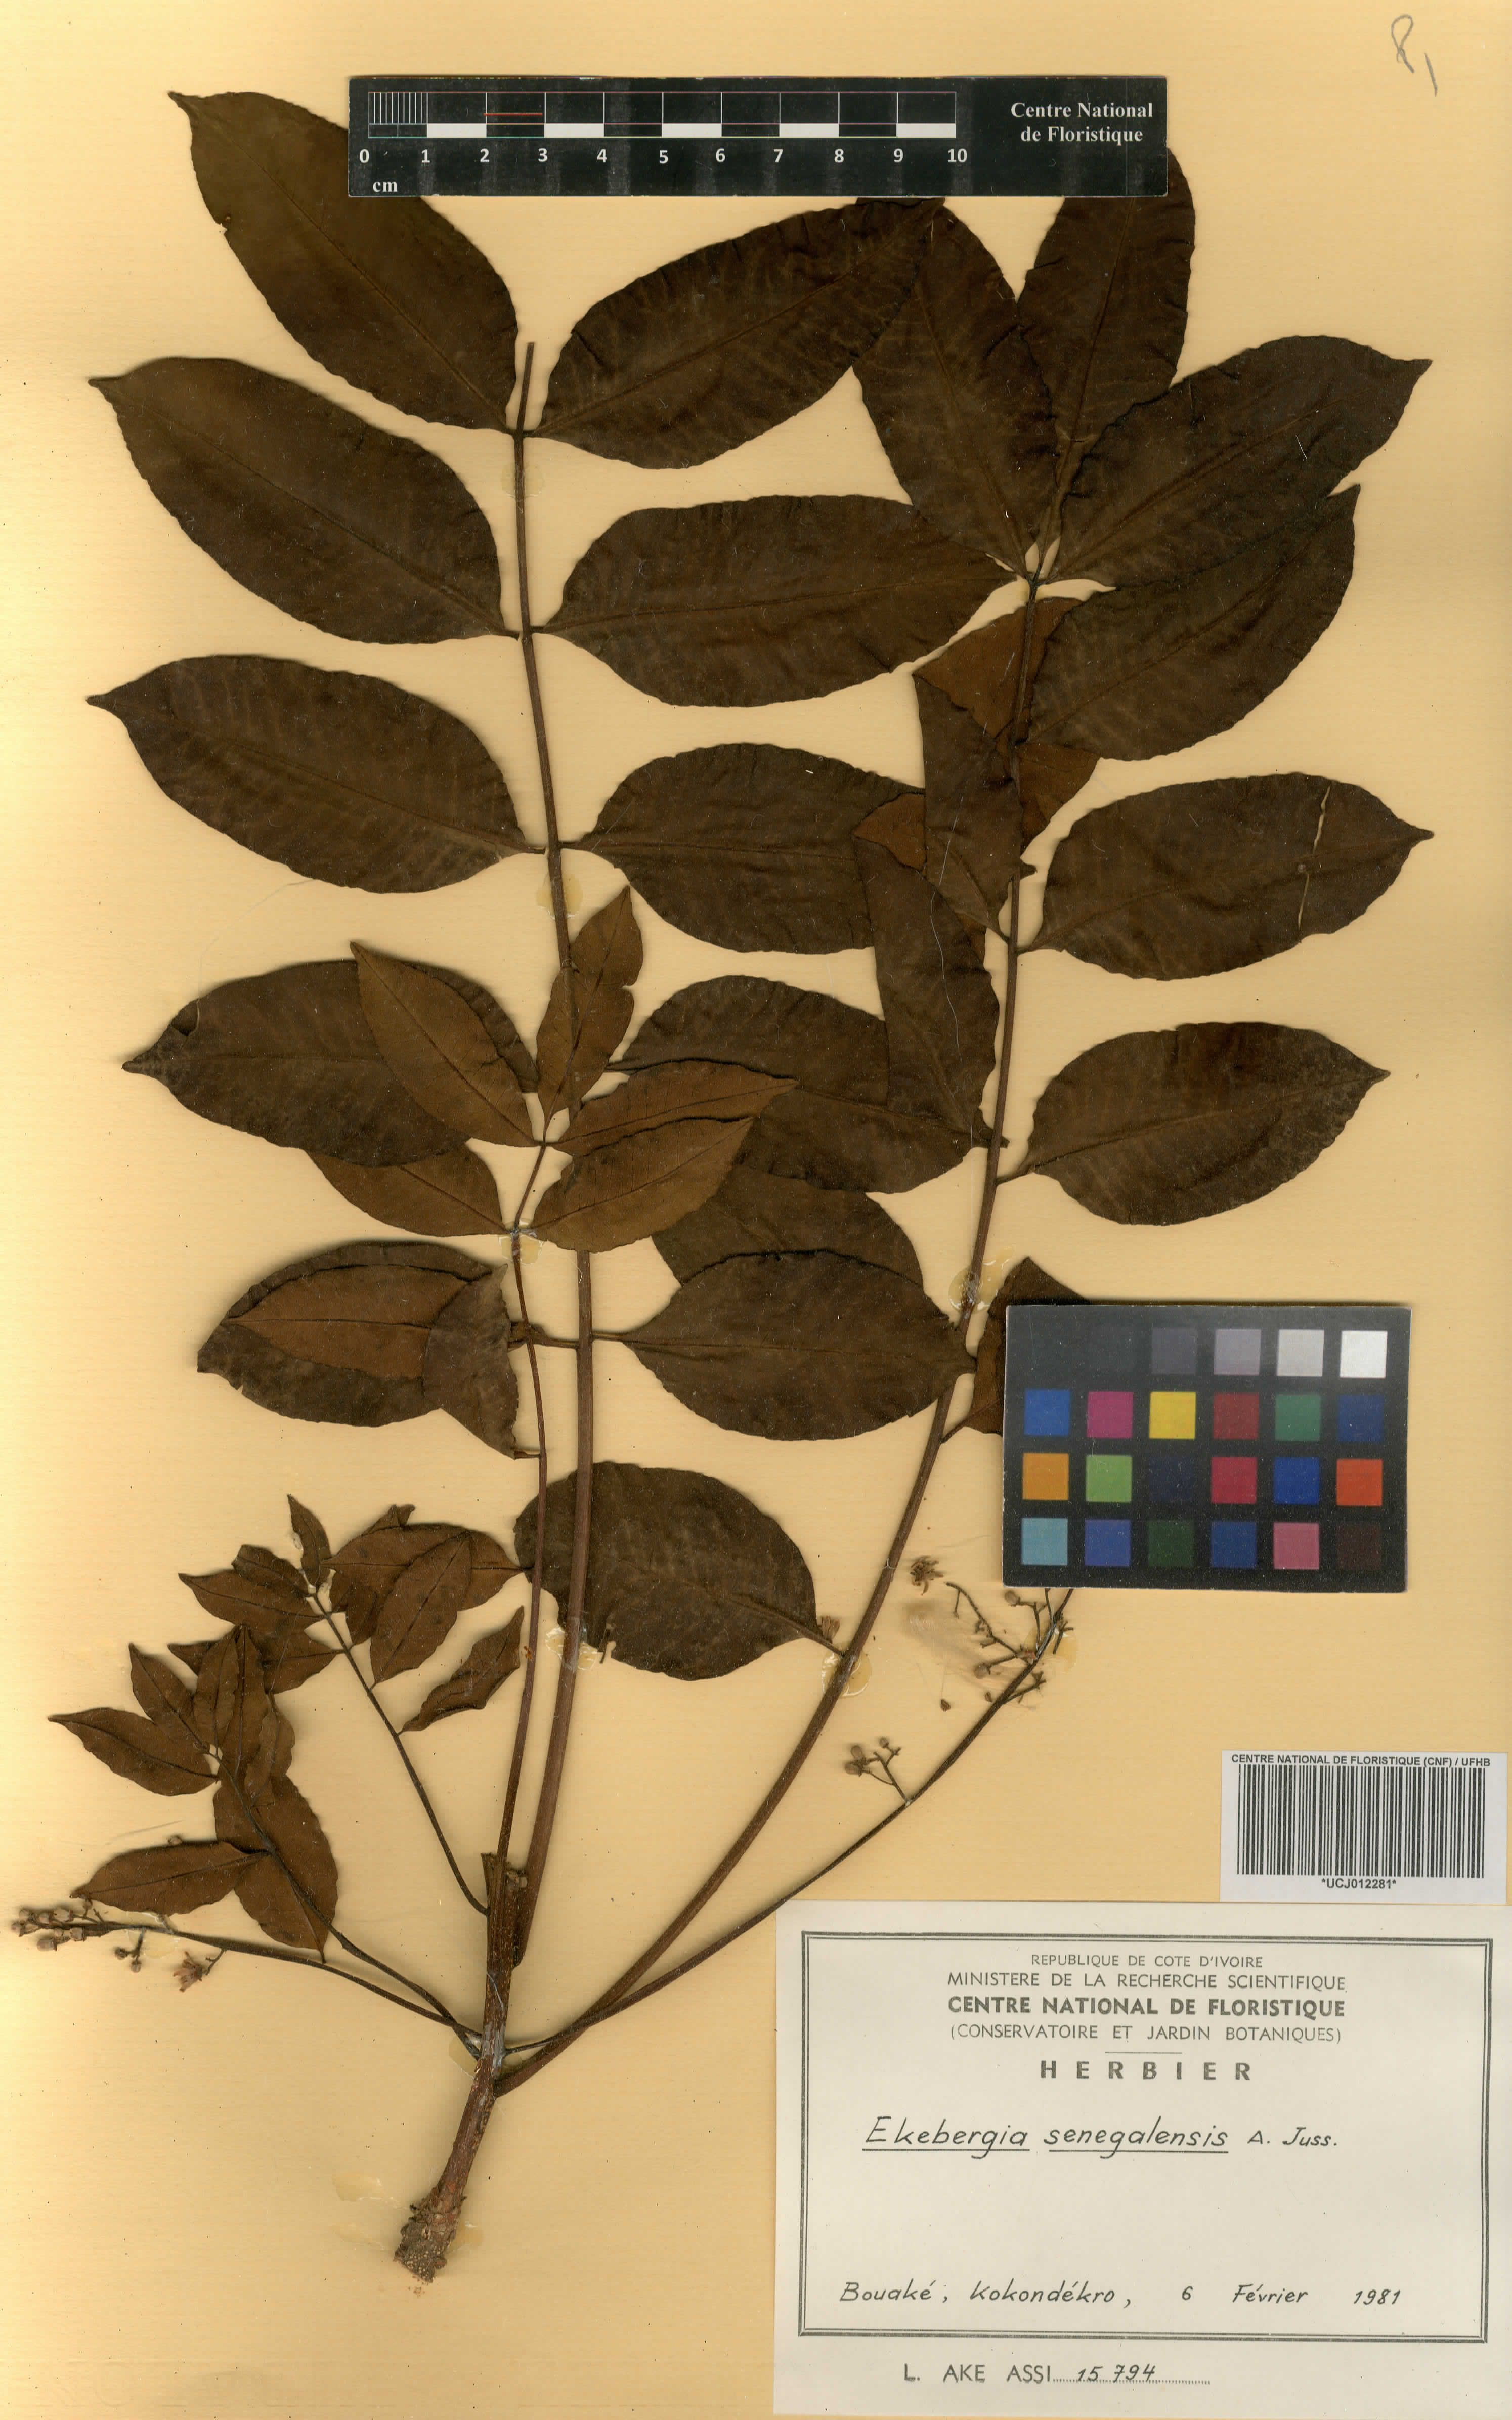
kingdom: Plantae
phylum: Tracheophyta
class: Magnoliopsida
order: Sapindales
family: Meliaceae
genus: Ekebergia
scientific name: Ekebergia capensis
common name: Cape-ash
